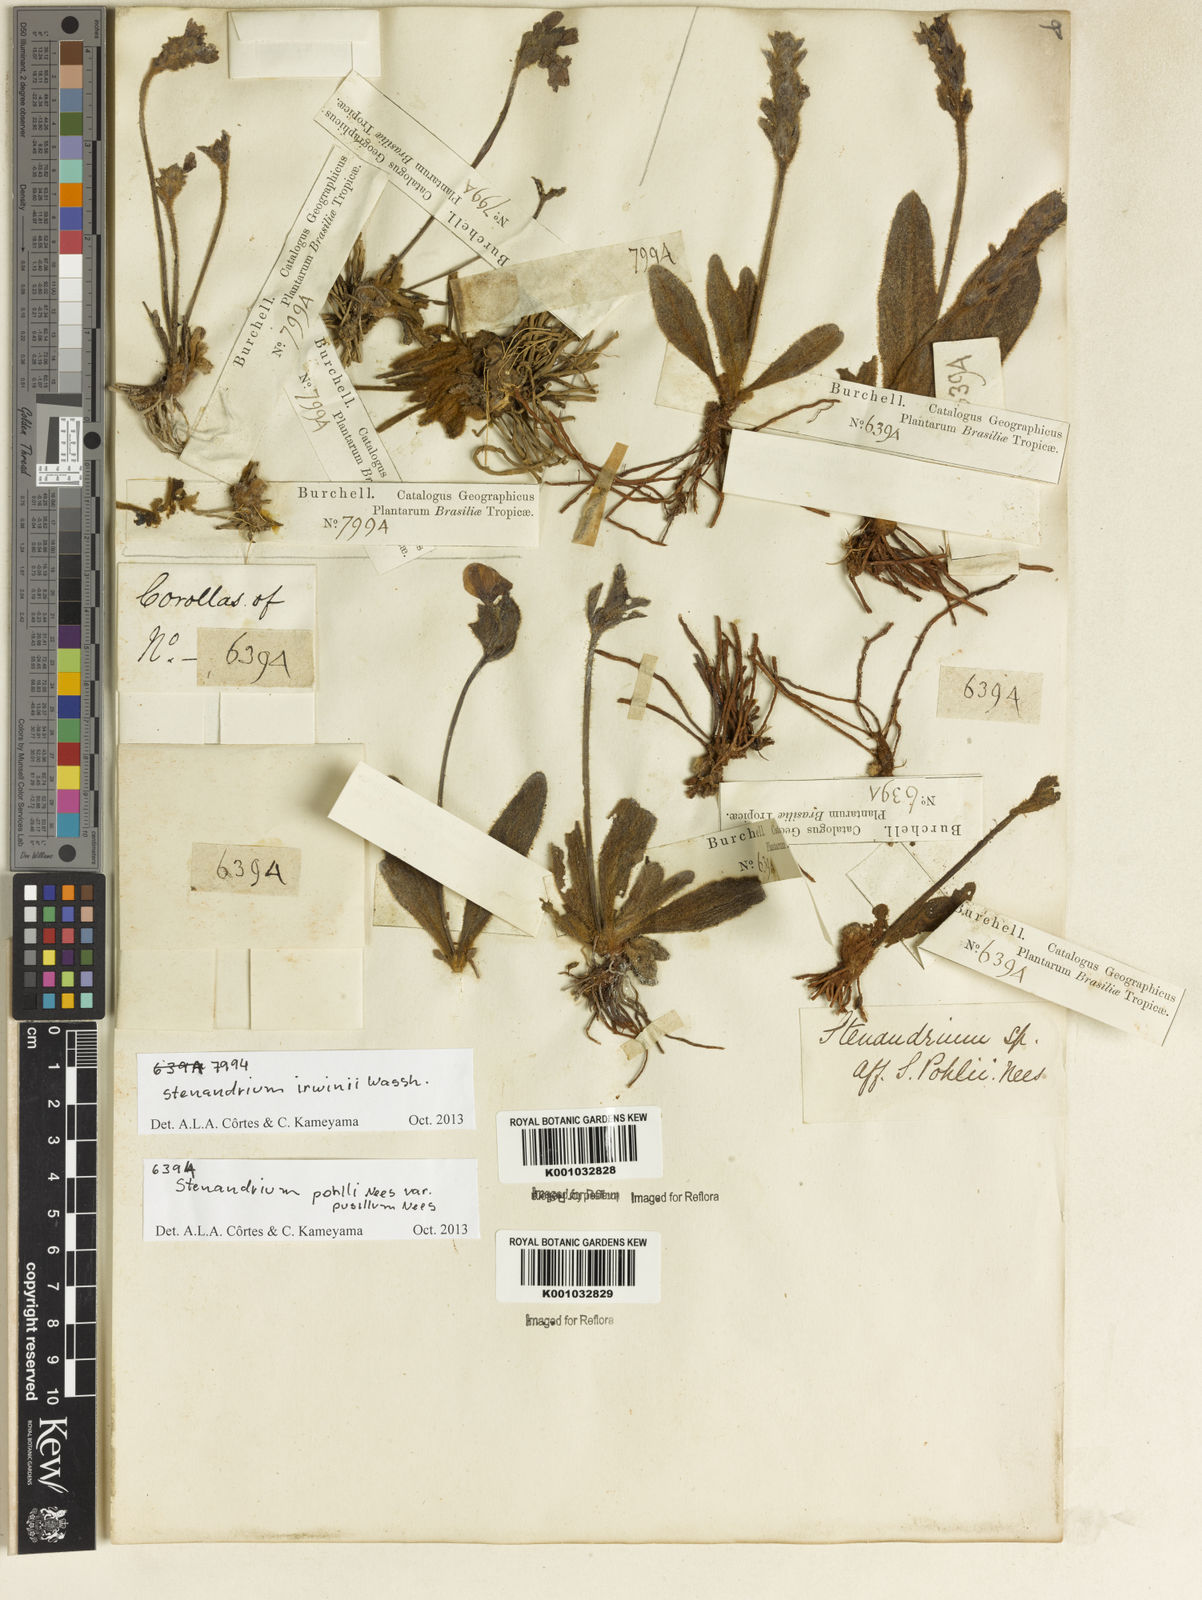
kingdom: Plantae
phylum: Tracheophyta
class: Magnoliopsida
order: Lamiales
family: Acanthaceae
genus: Stenandrium
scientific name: Stenandrium irwinii
